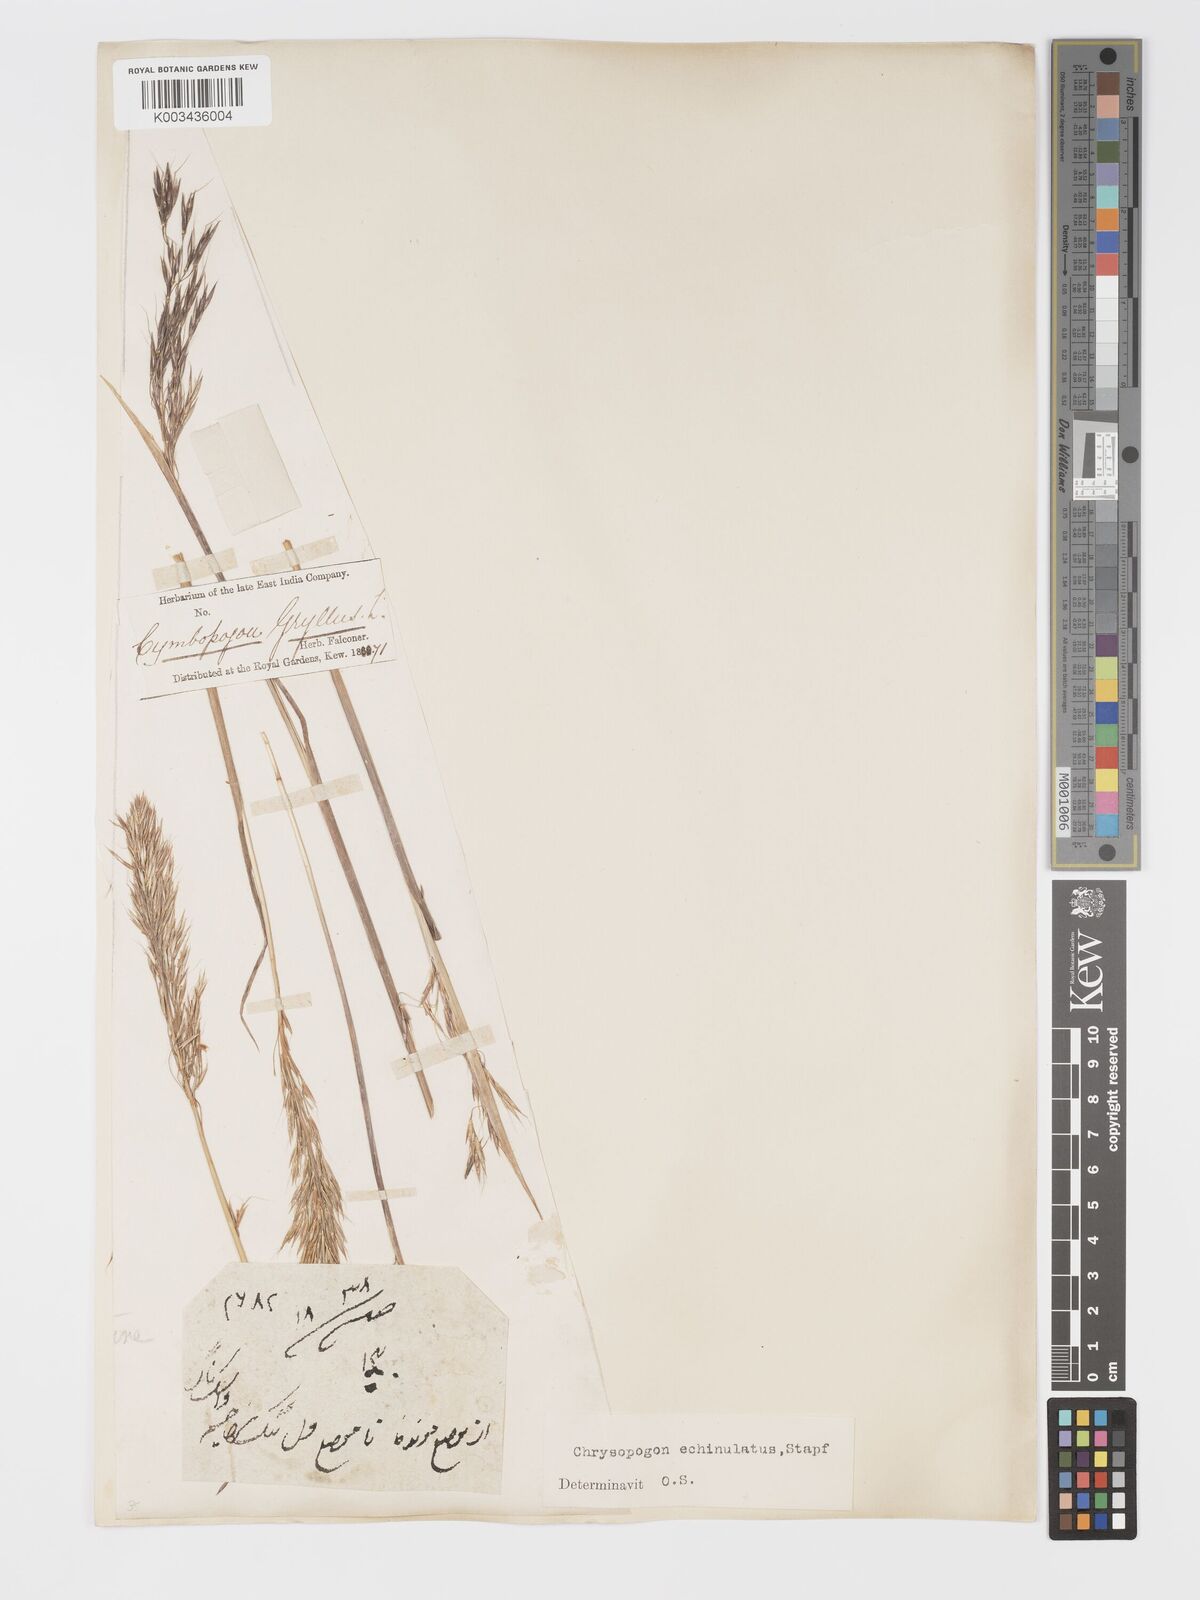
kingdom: Plantae
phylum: Tracheophyta
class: Liliopsida
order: Poales
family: Poaceae
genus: Chrysopogon
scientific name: Chrysopogon gryllus
